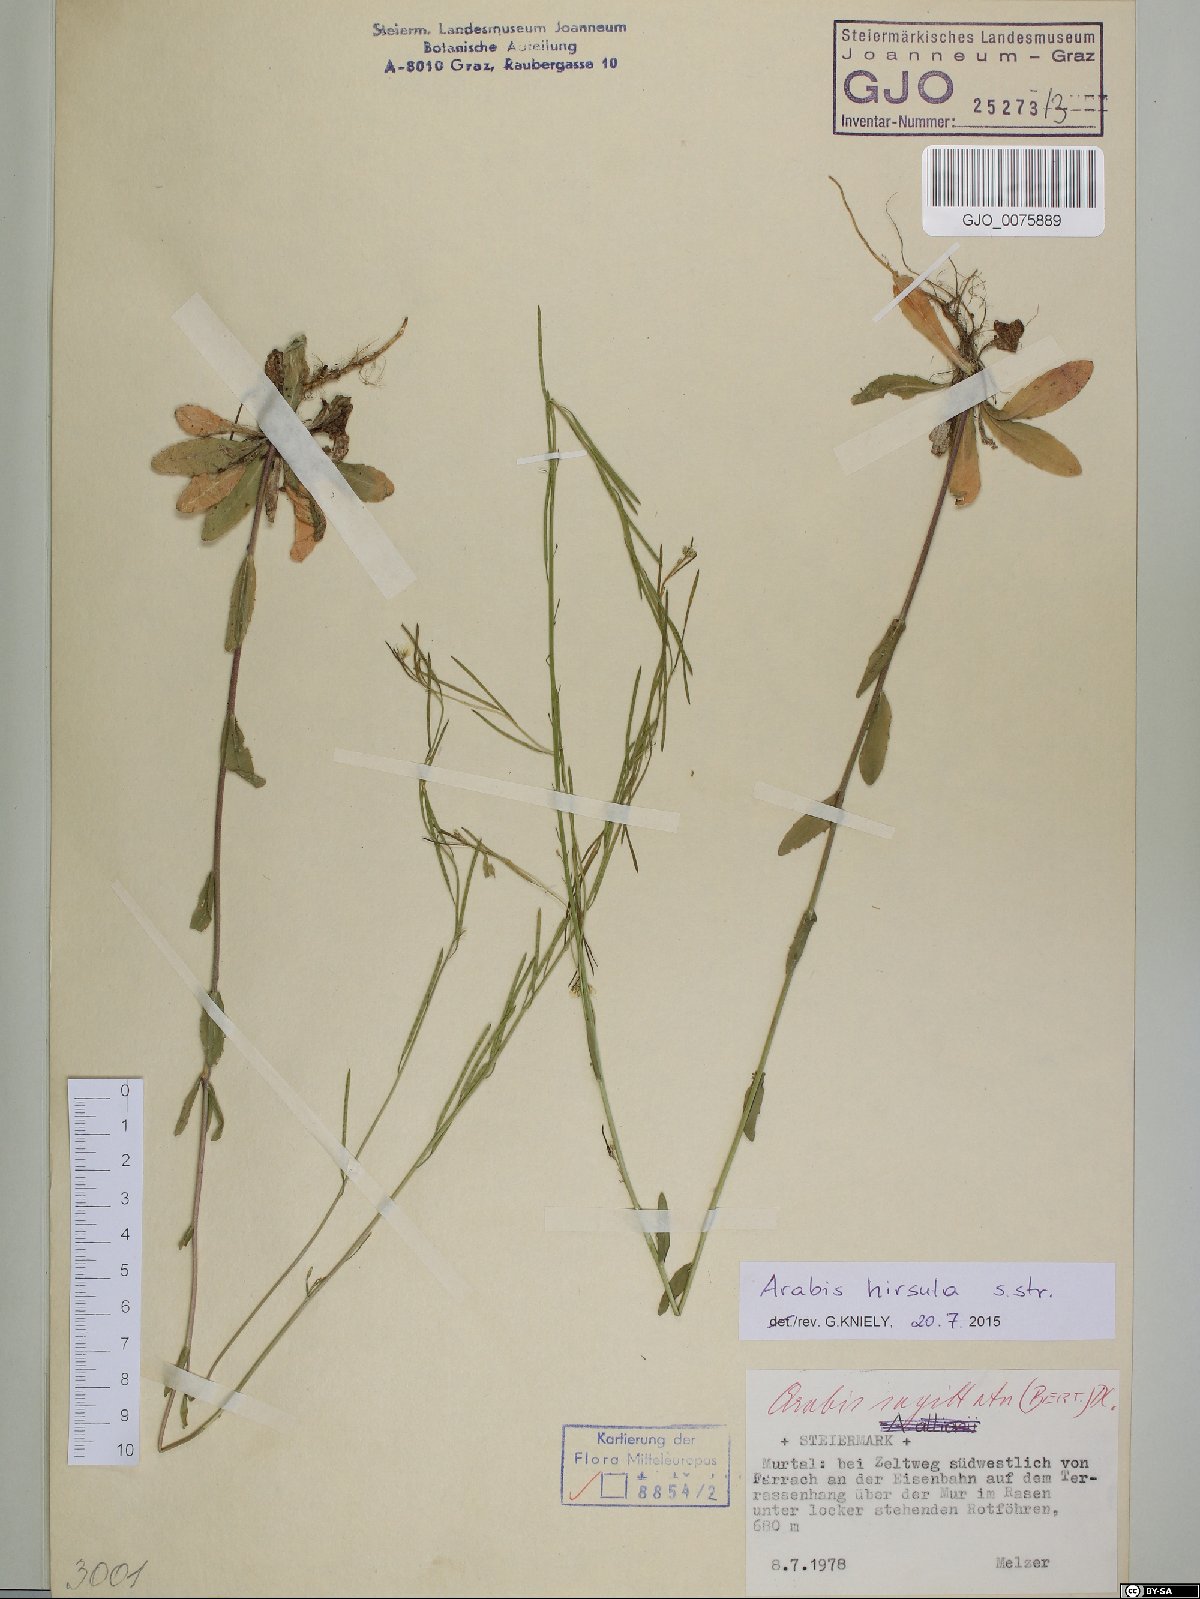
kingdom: Plantae
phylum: Tracheophyta
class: Magnoliopsida
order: Brassicales
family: Brassicaceae
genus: Arabis
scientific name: Arabis hirsuta
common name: Hairy rock-cress
